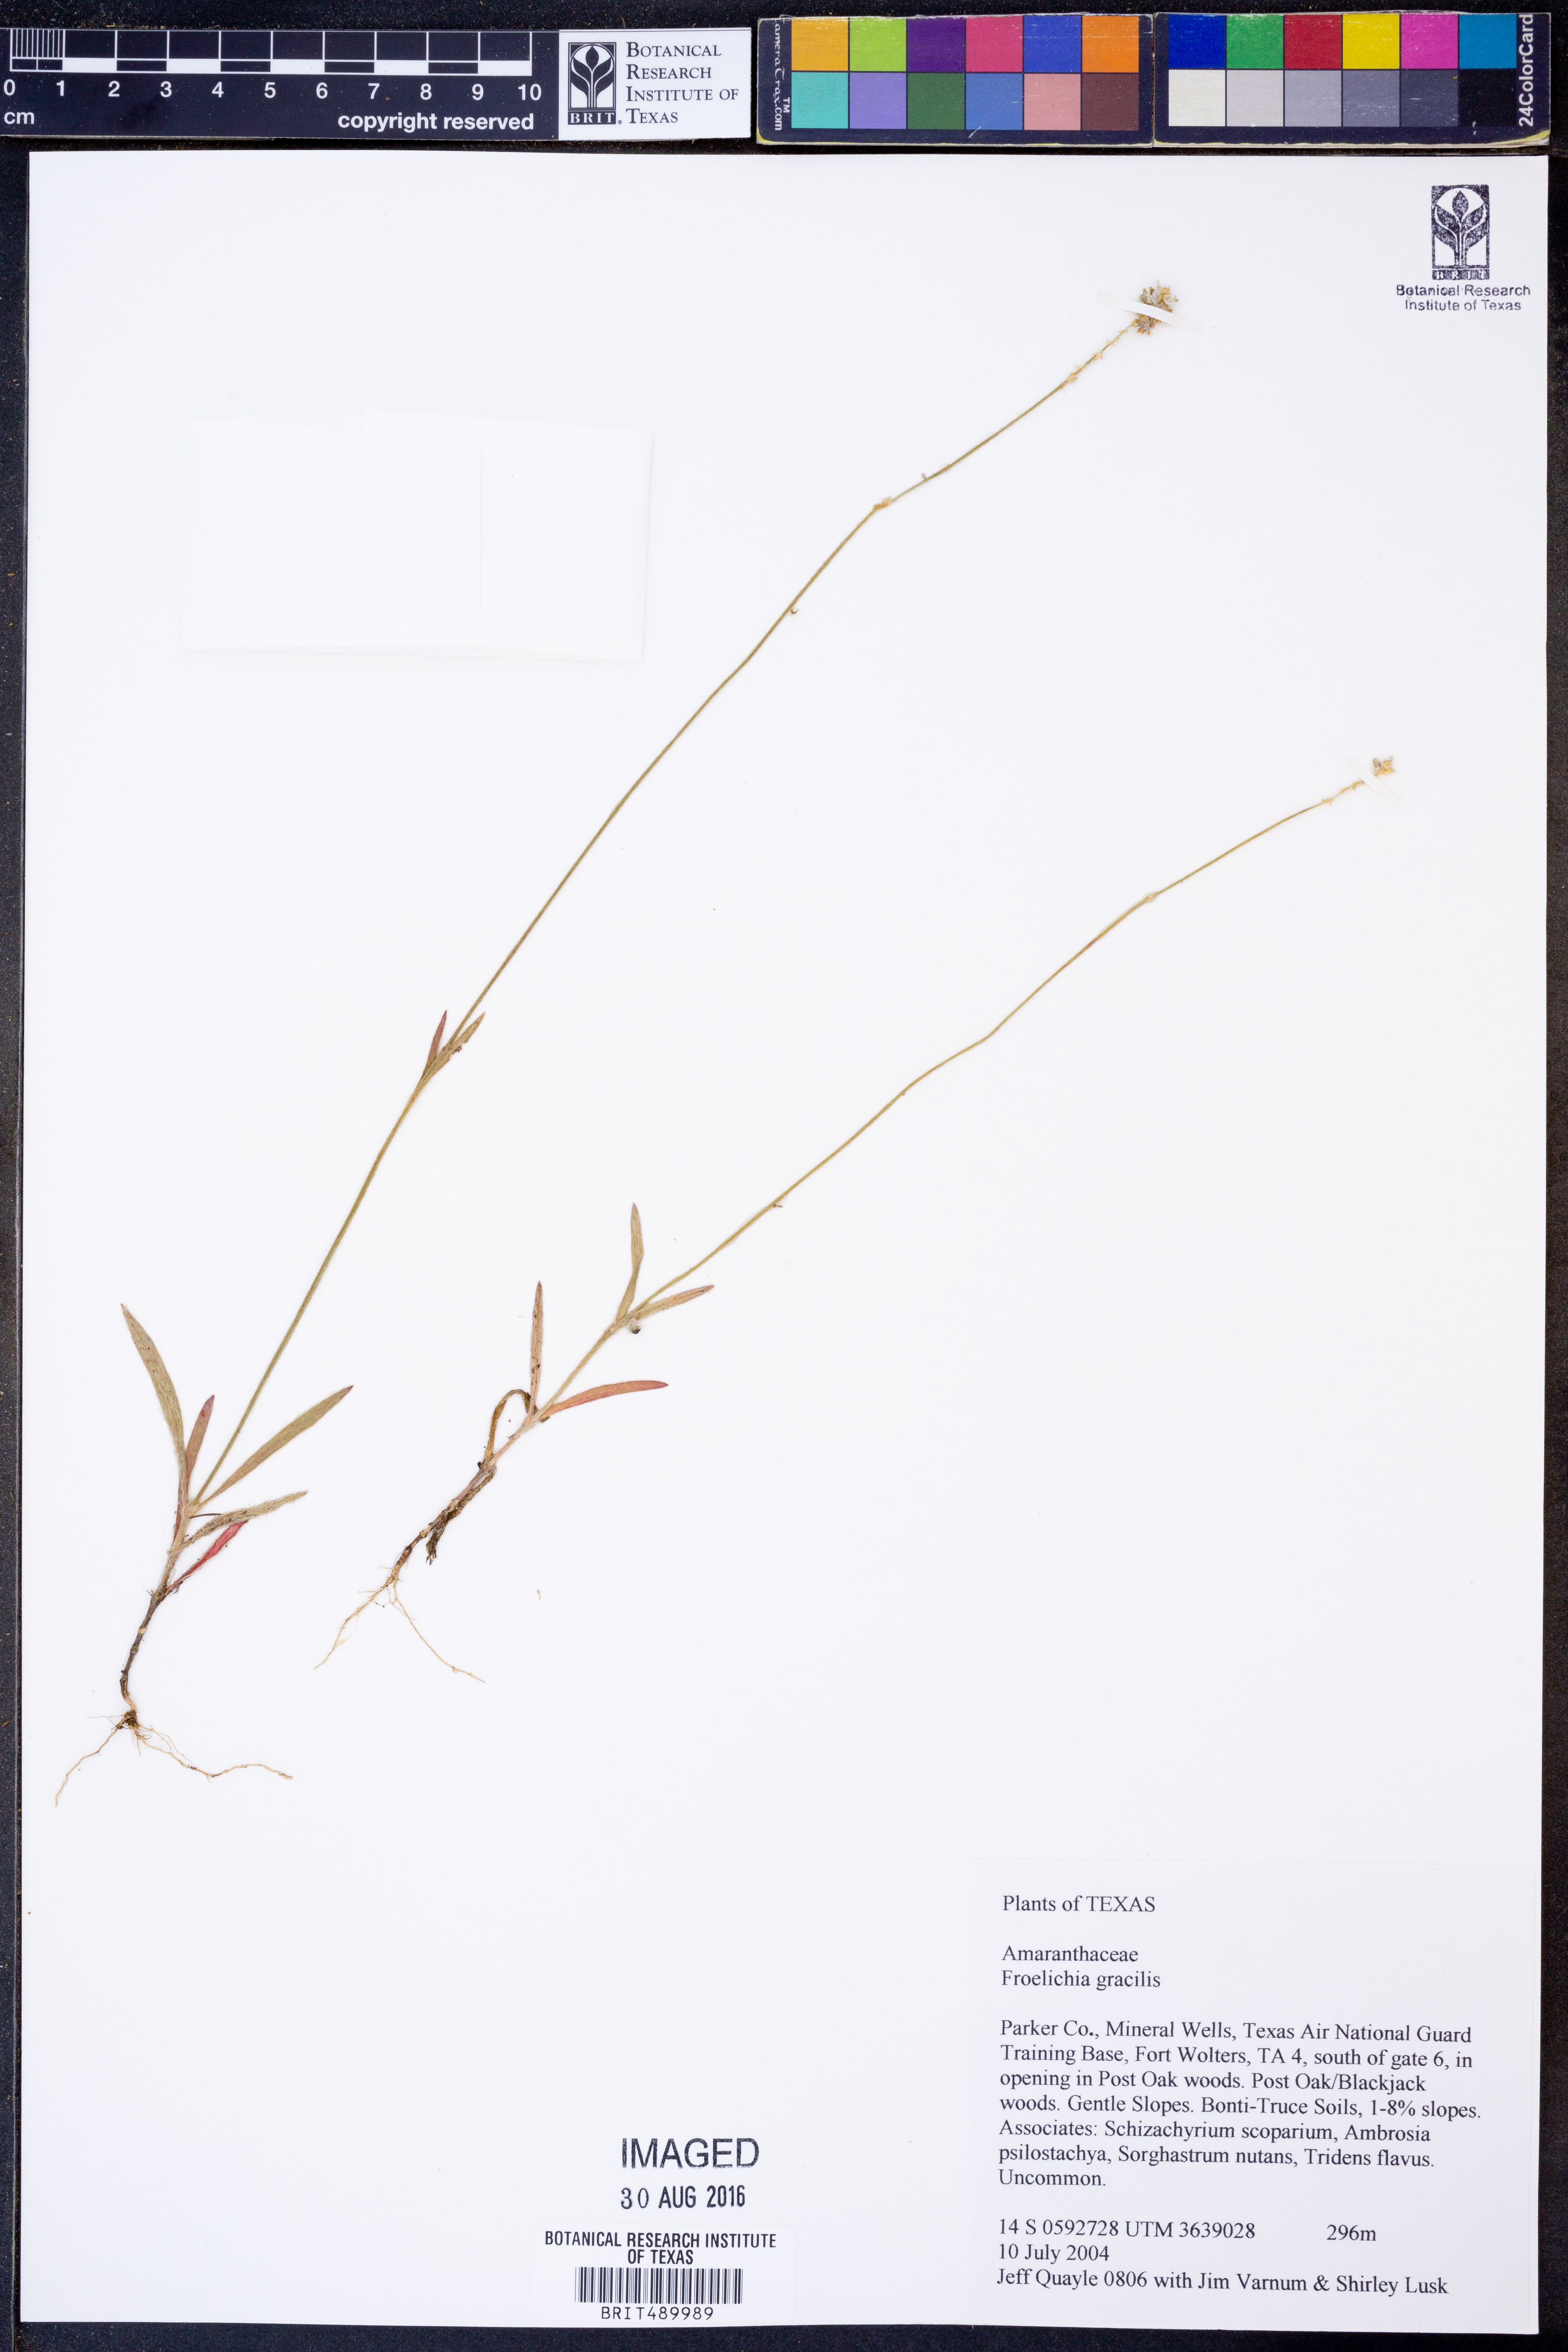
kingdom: Plantae
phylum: Tracheophyta
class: Magnoliopsida
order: Caryophyllales
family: Amaranthaceae
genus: Froelichia
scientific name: Froelichia gracilis
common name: Slender cottonweed
